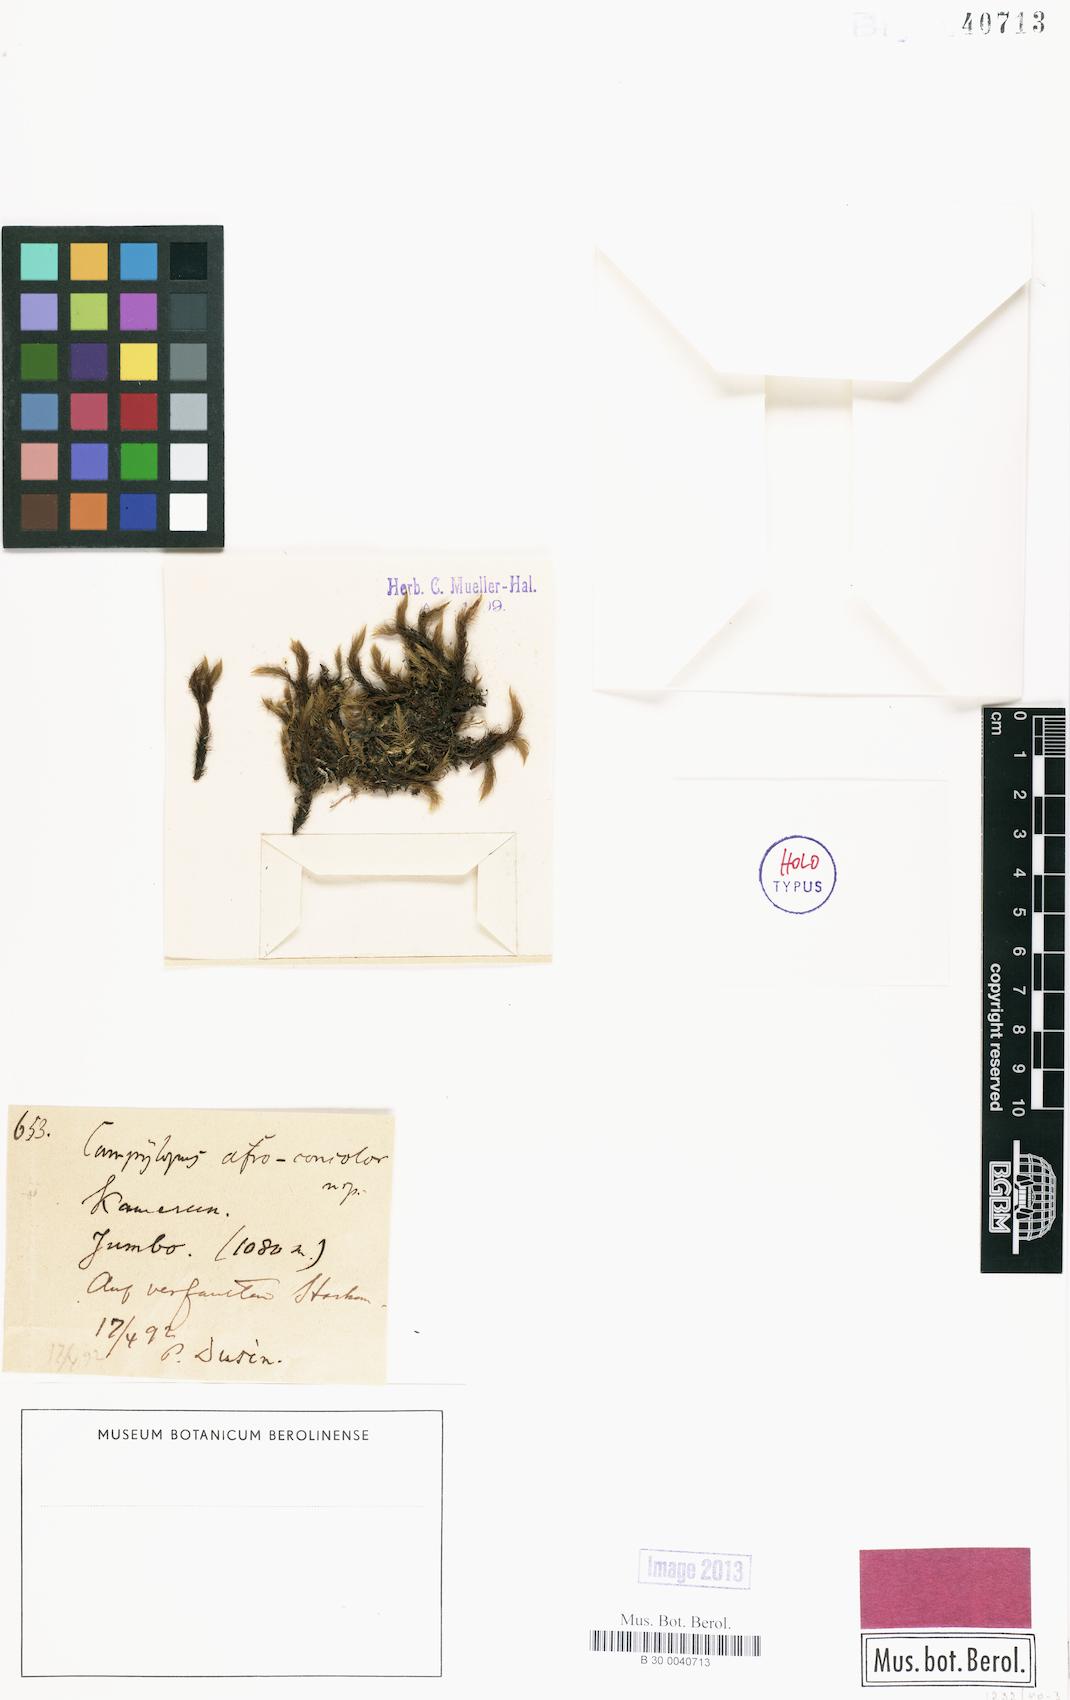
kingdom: Plantae
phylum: Bryophyta
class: Bryopsida
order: Dicranales
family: Leucobryaceae
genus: Campylopus
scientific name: Campylopus savannarum
